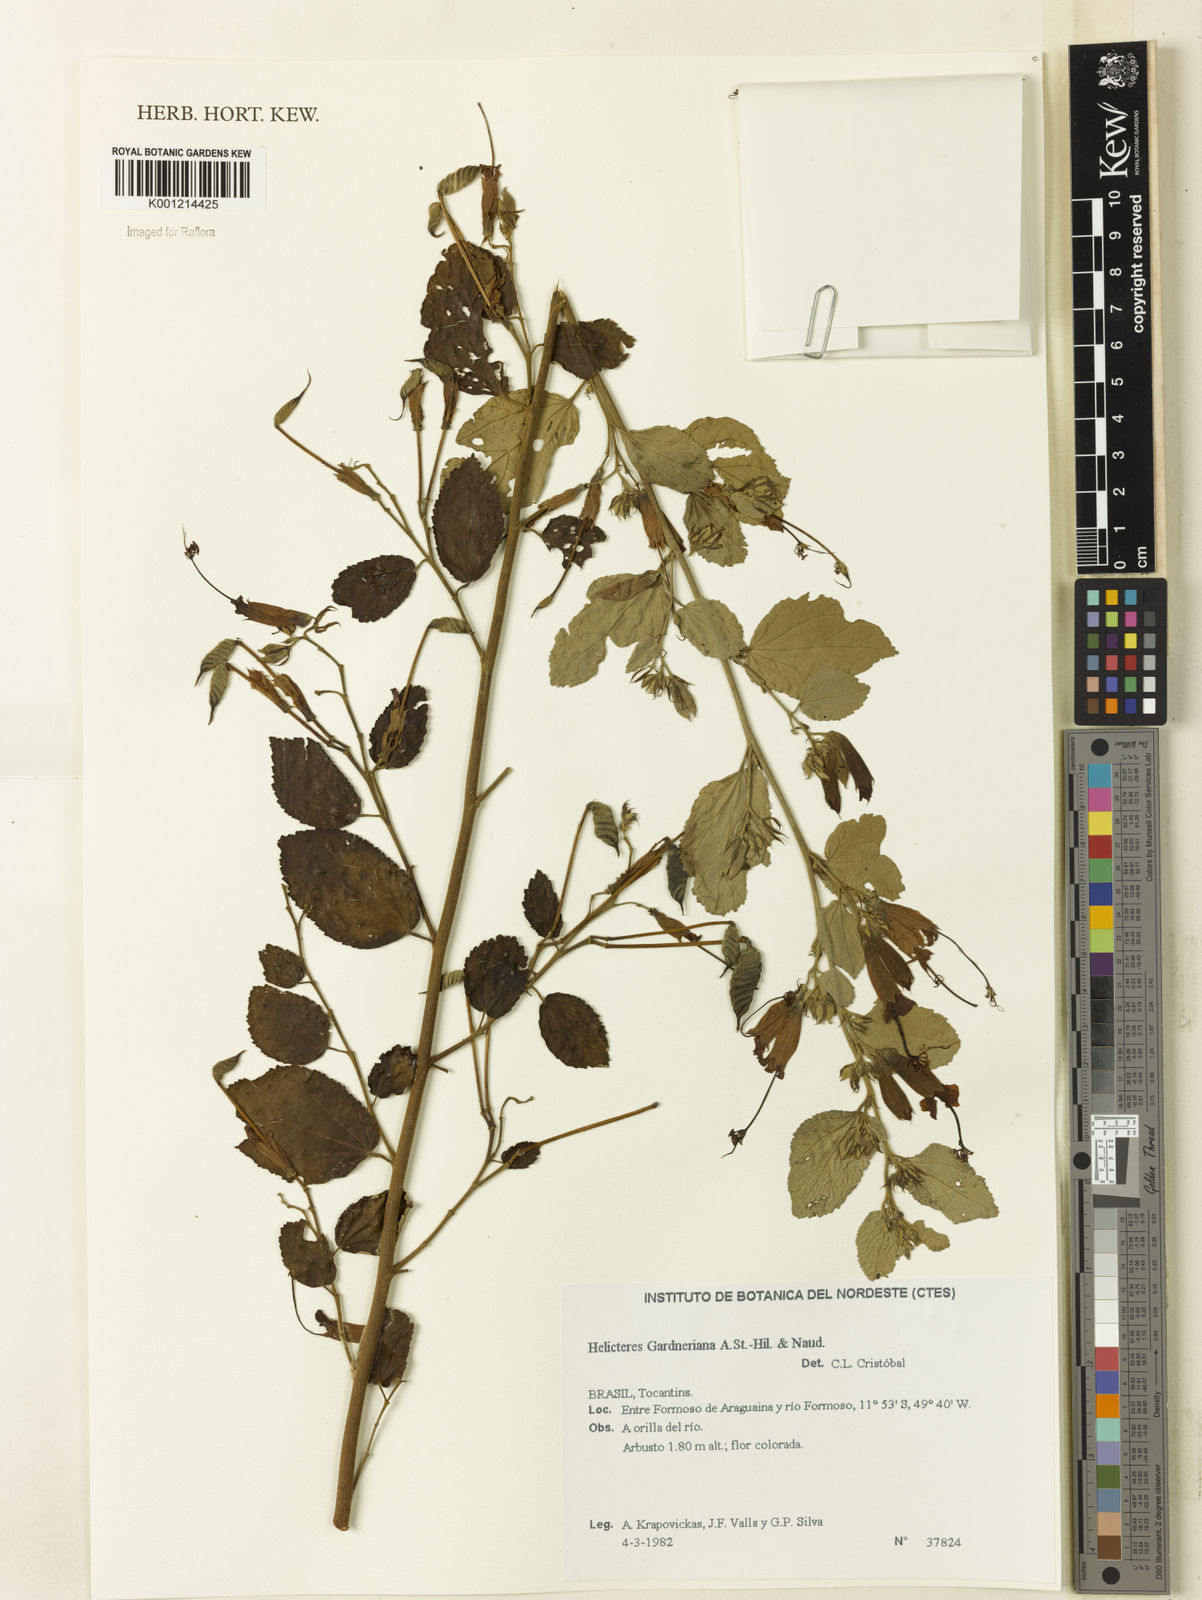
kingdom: Plantae
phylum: Tracheophyta
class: Magnoliopsida
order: Malvales
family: Malvaceae
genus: Helicteres
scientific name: Helicteres gardneriana
